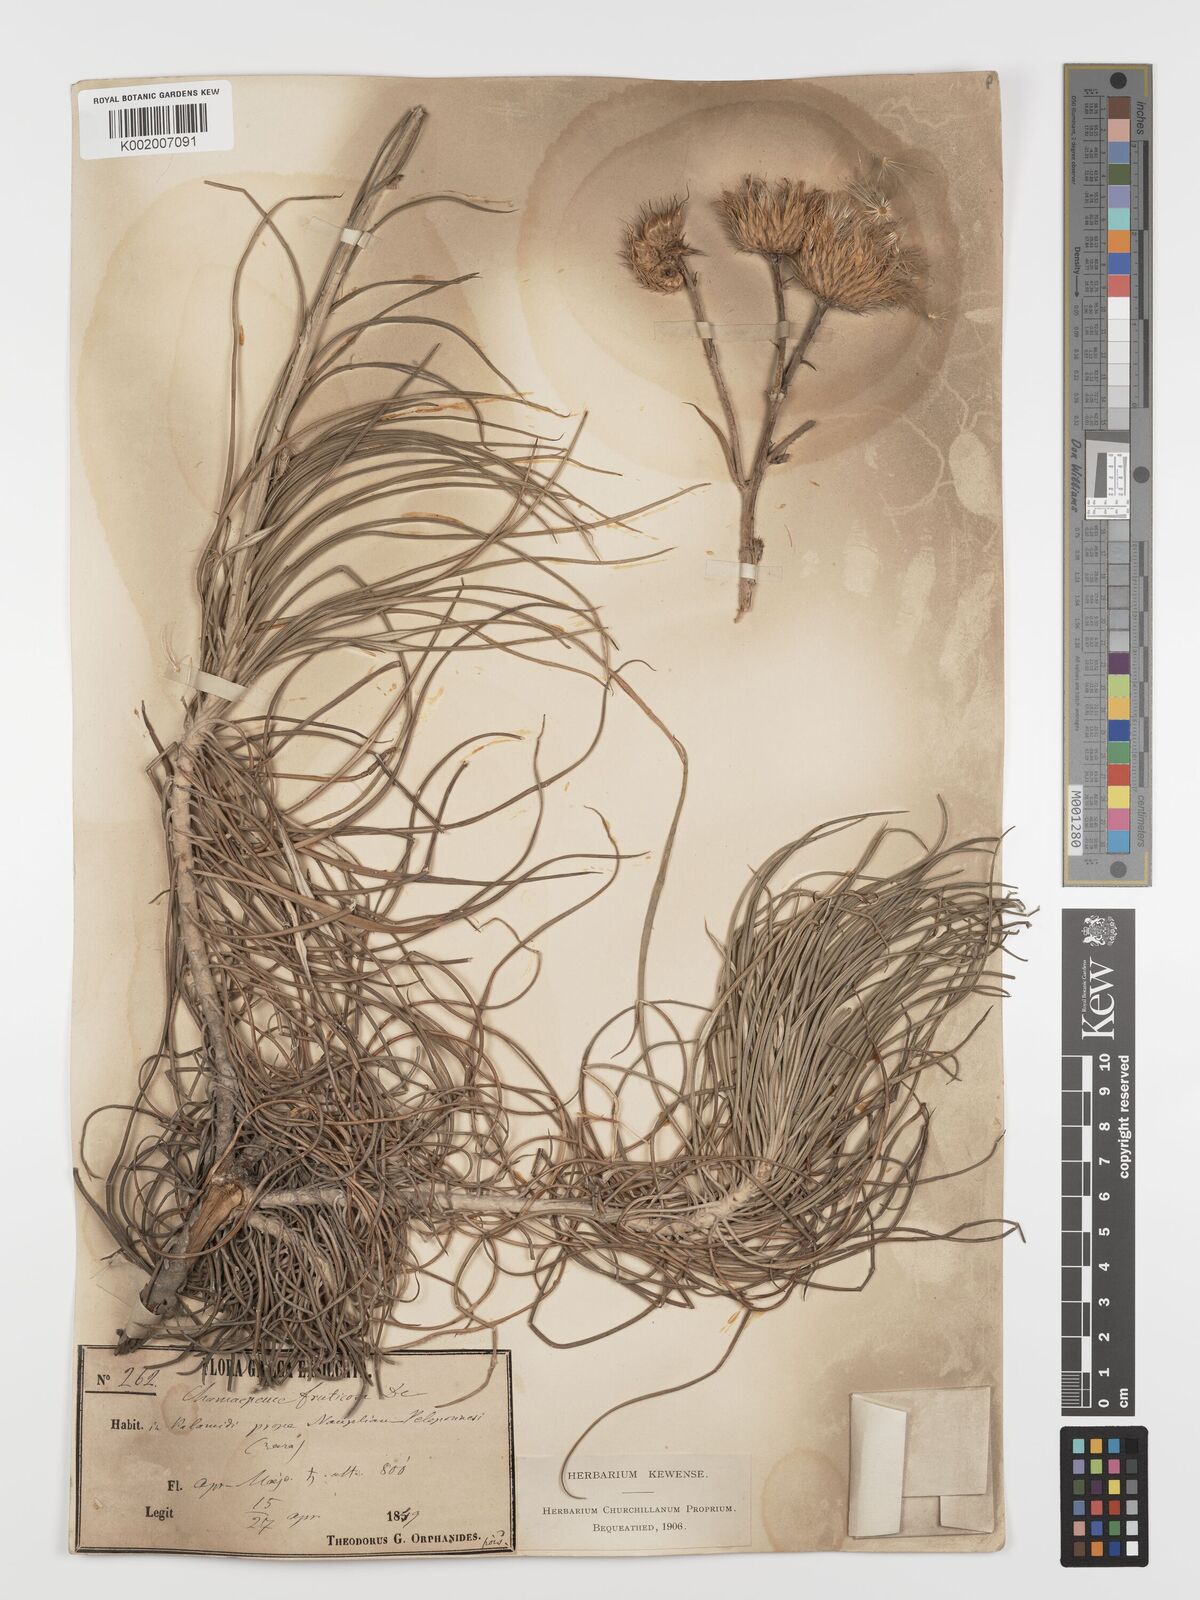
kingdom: Plantae
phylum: Tracheophyta
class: Magnoliopsida
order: Asterales
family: Asteraceae
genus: Ptilostemon
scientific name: Ptilostemon gnaphaloides
